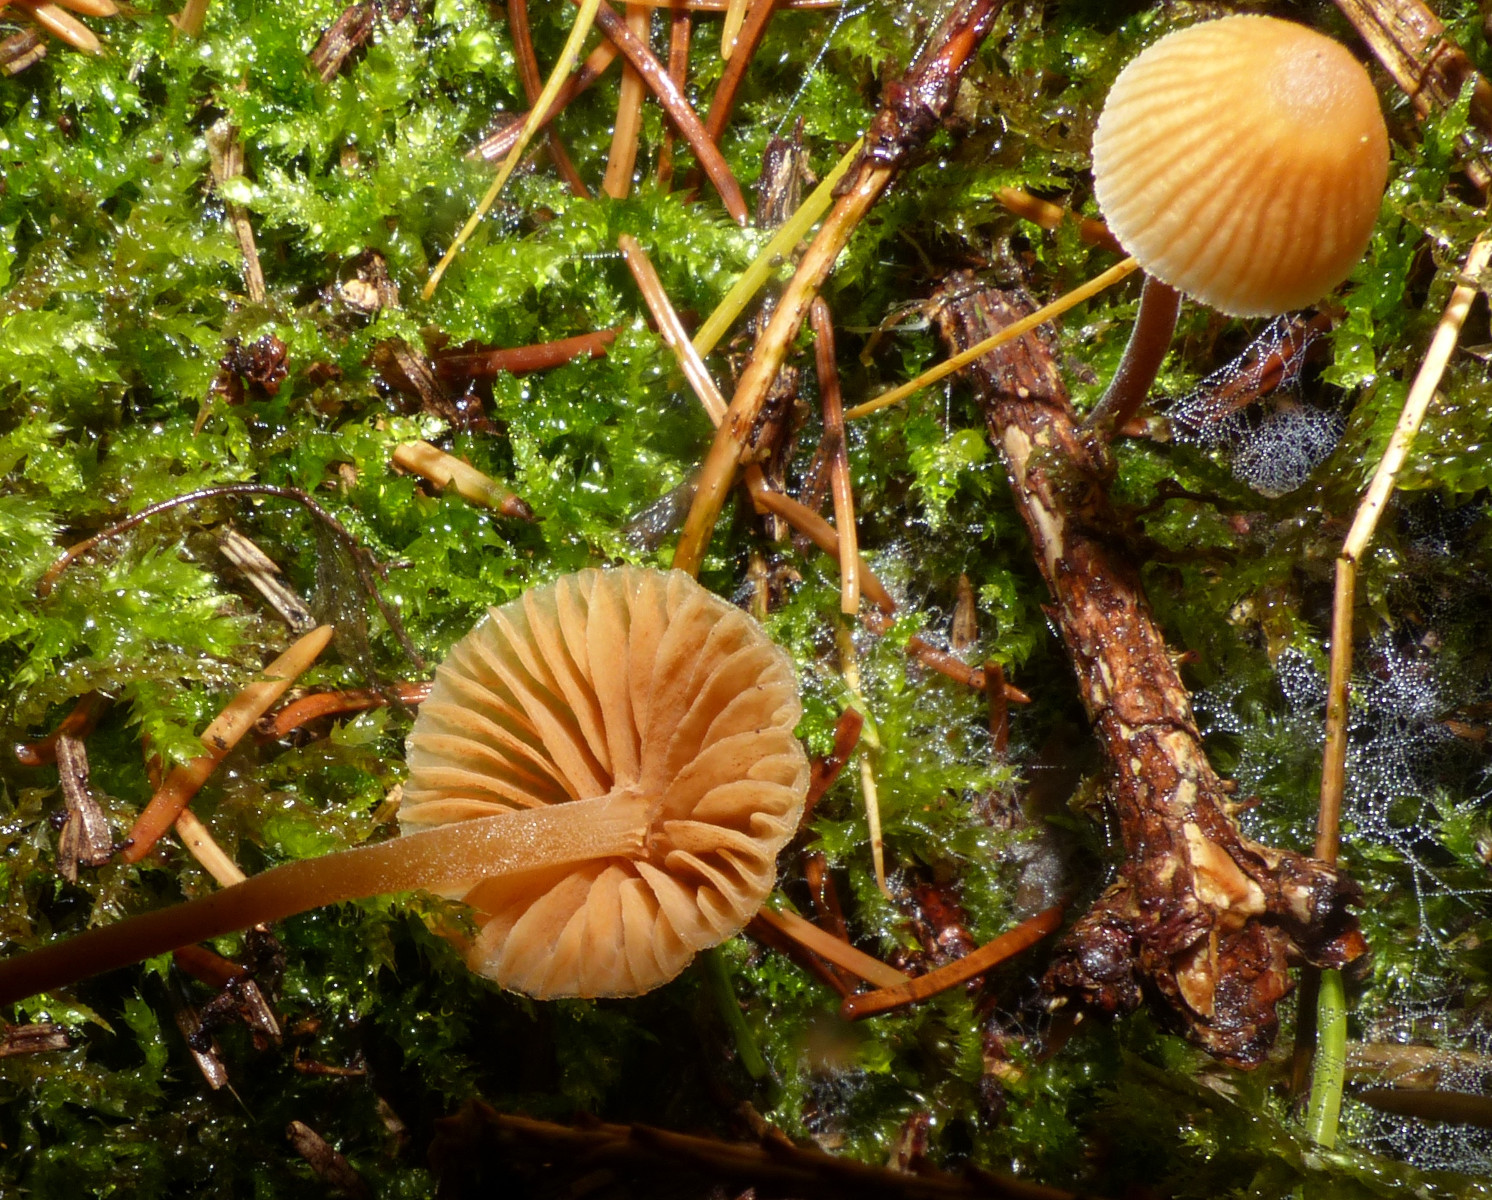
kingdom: Fungi
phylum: Basidiomycota
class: Agaricomycetes
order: Agaricales
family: Hymenogastraceae
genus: Galerina
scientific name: Galerina
